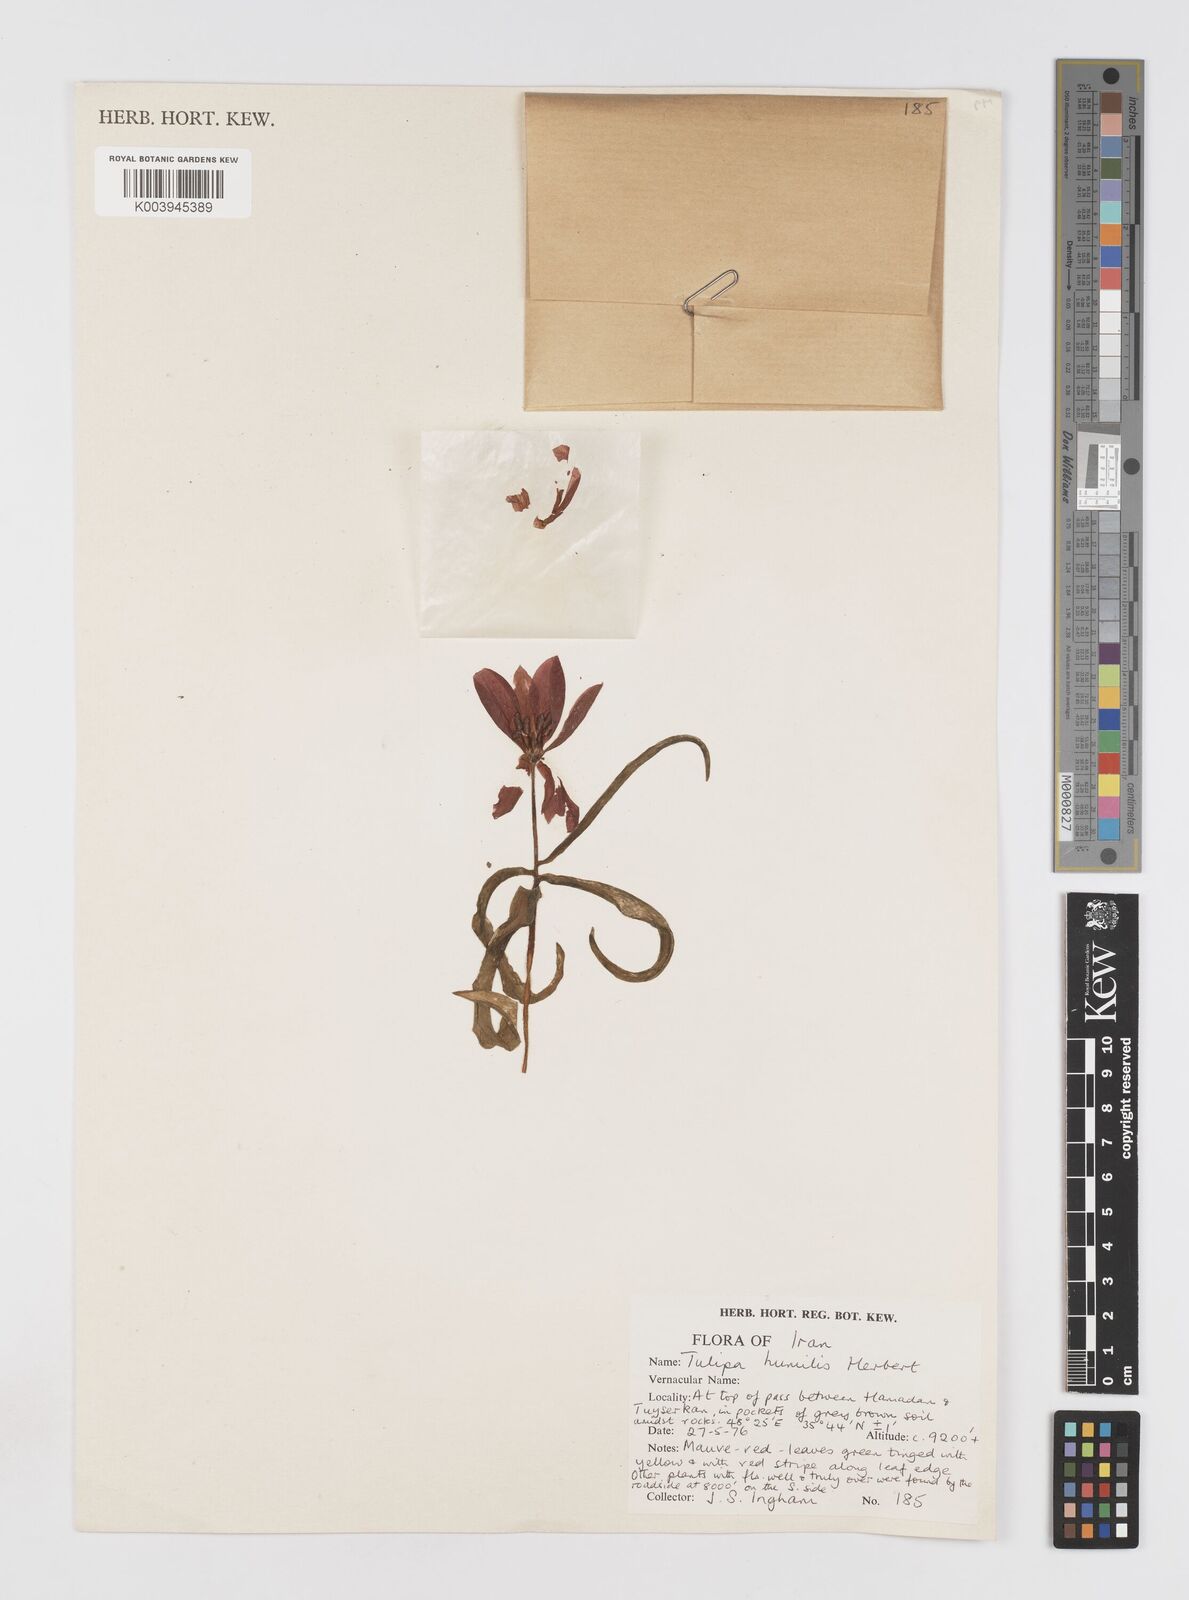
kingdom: Plantae
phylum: Tracheophyta
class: Liliopsida
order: Liliales
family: Liliaceae
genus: Tulipa
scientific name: Tulipa humilis
